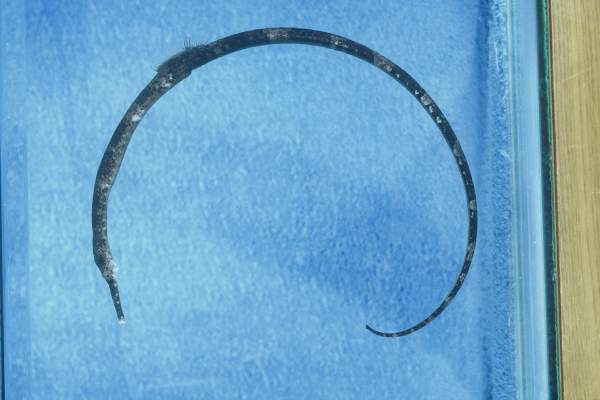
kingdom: Animalia
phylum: Chordata
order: Syngnathiformes
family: Syngnathidae
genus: Trachyrhamphus
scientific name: Trachyrhamphus bicoarctatus
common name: Double-ended pipefish
